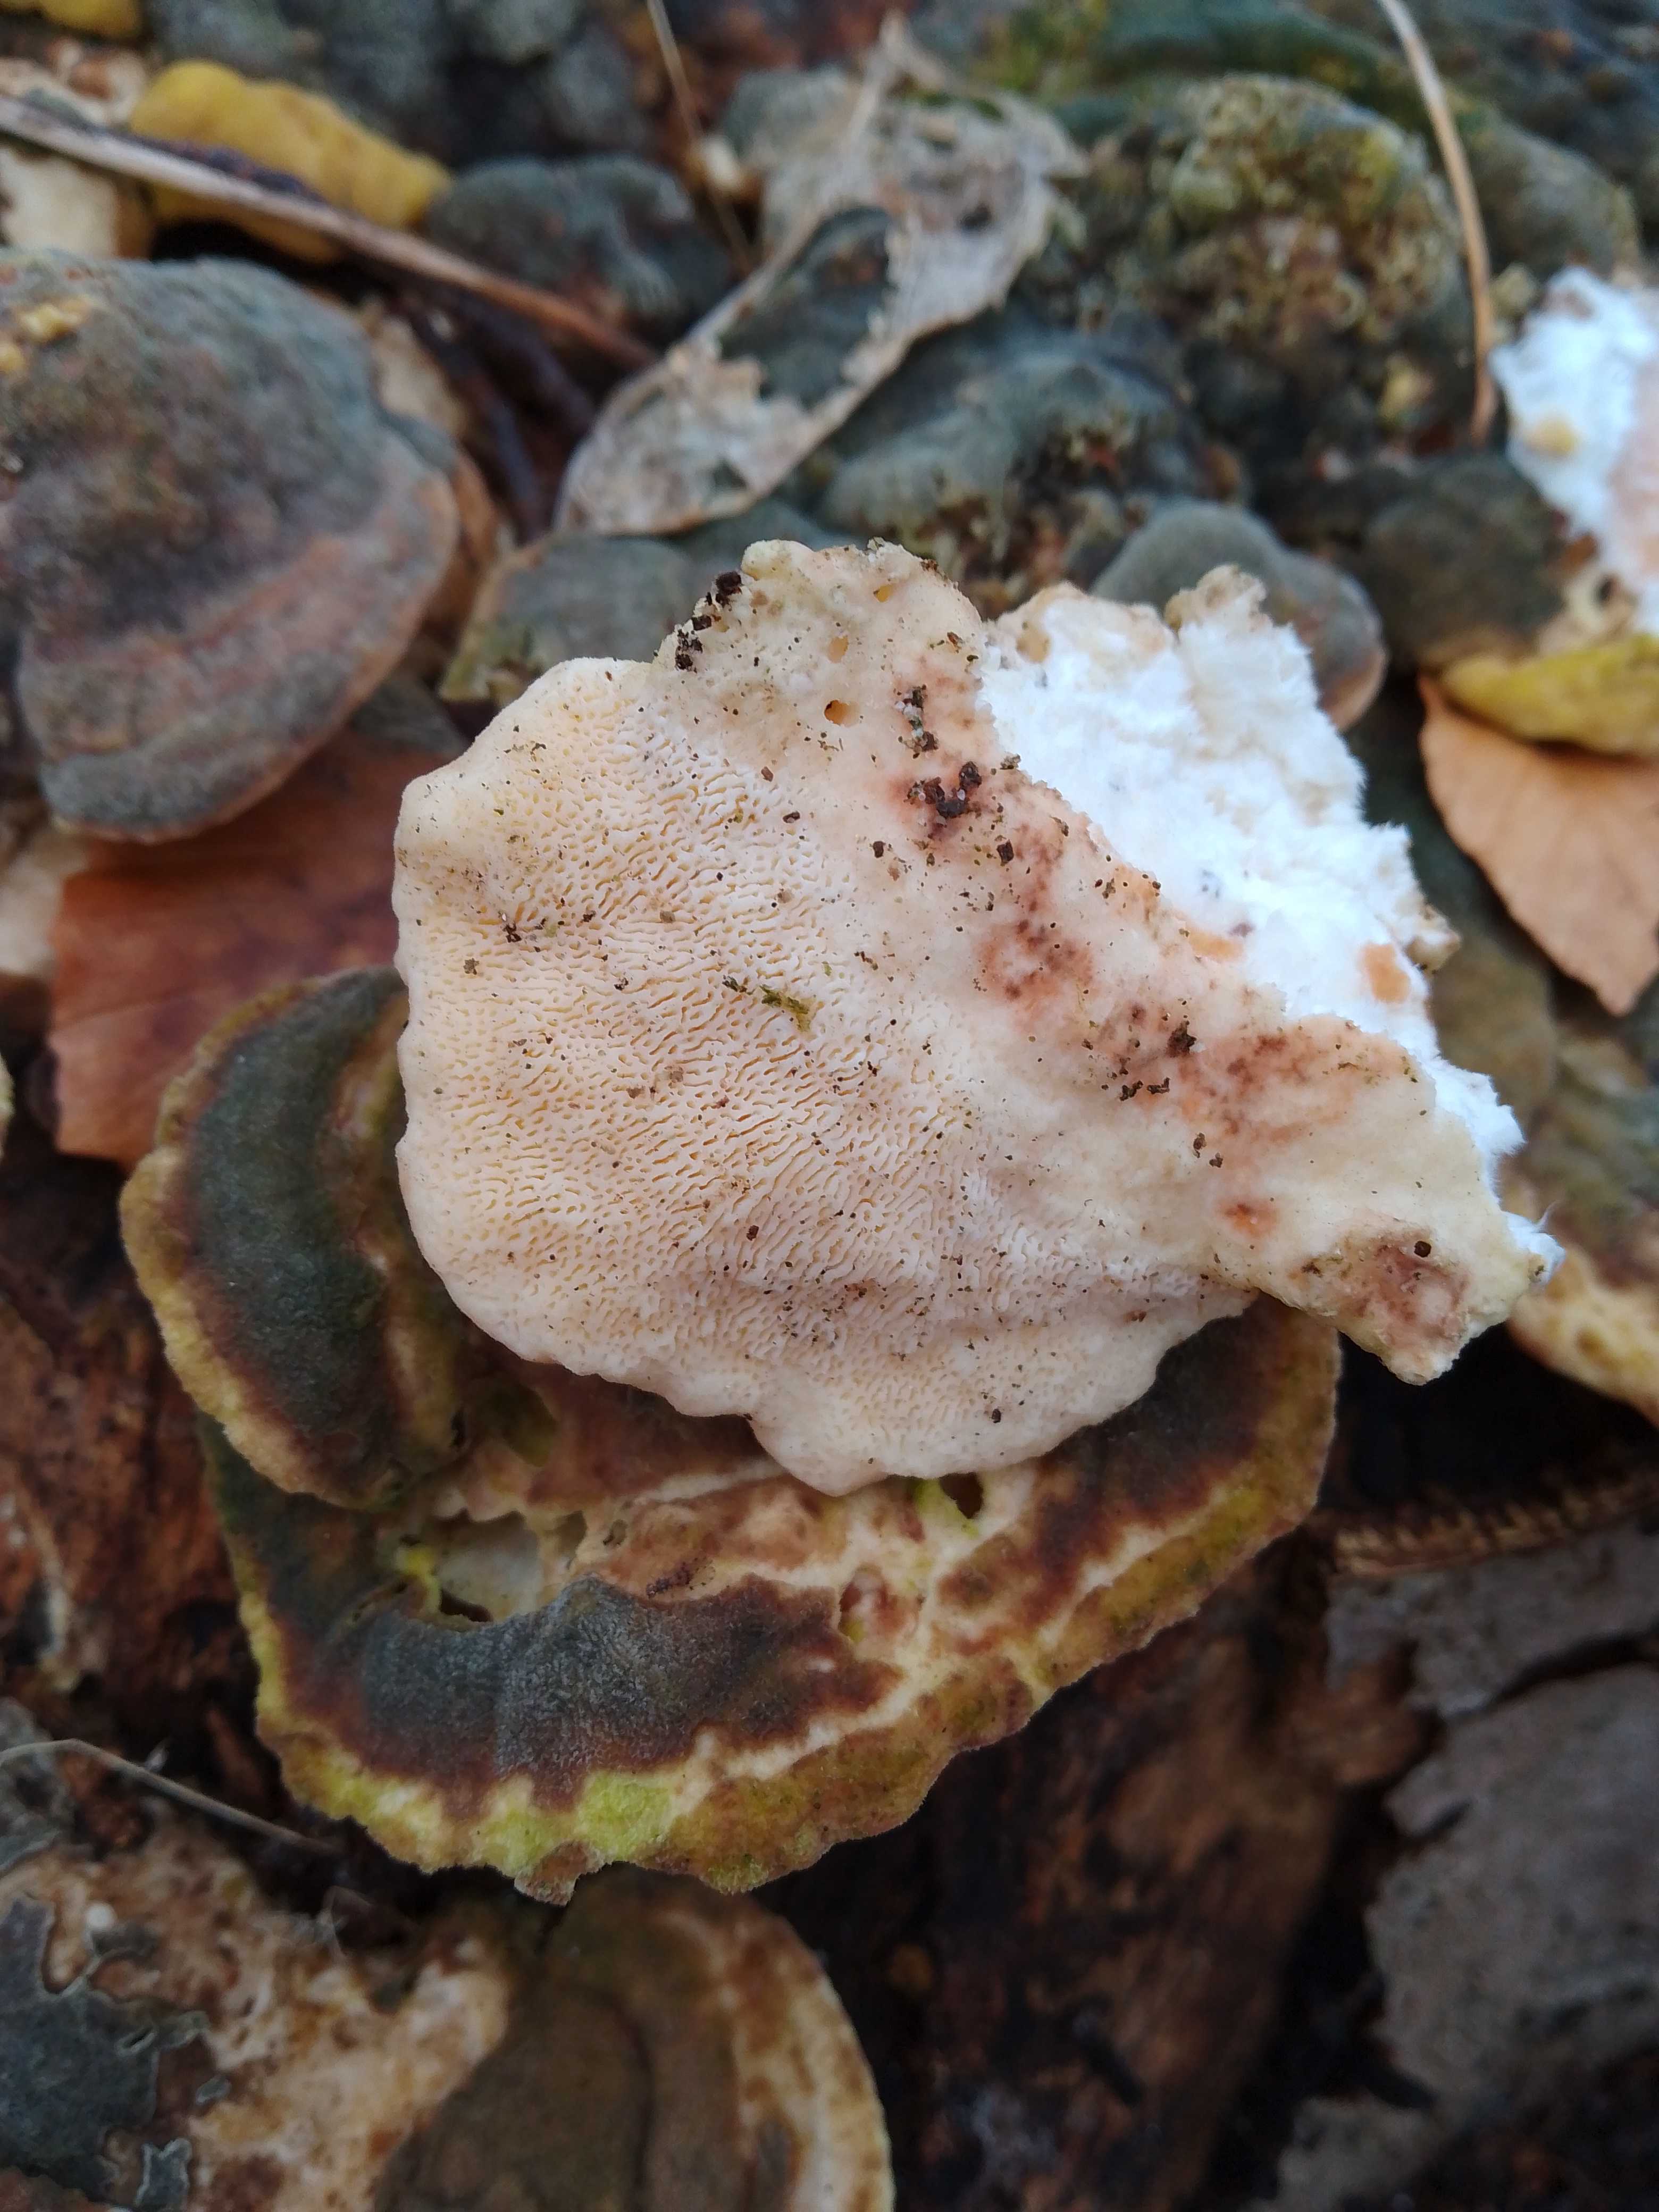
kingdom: Fungi
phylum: Basidiomycota
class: Agaricomycetes
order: Polyporales
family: Polyporaceae
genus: Trametes
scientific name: Trametes gibbosa
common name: puklet læderporesvamp
